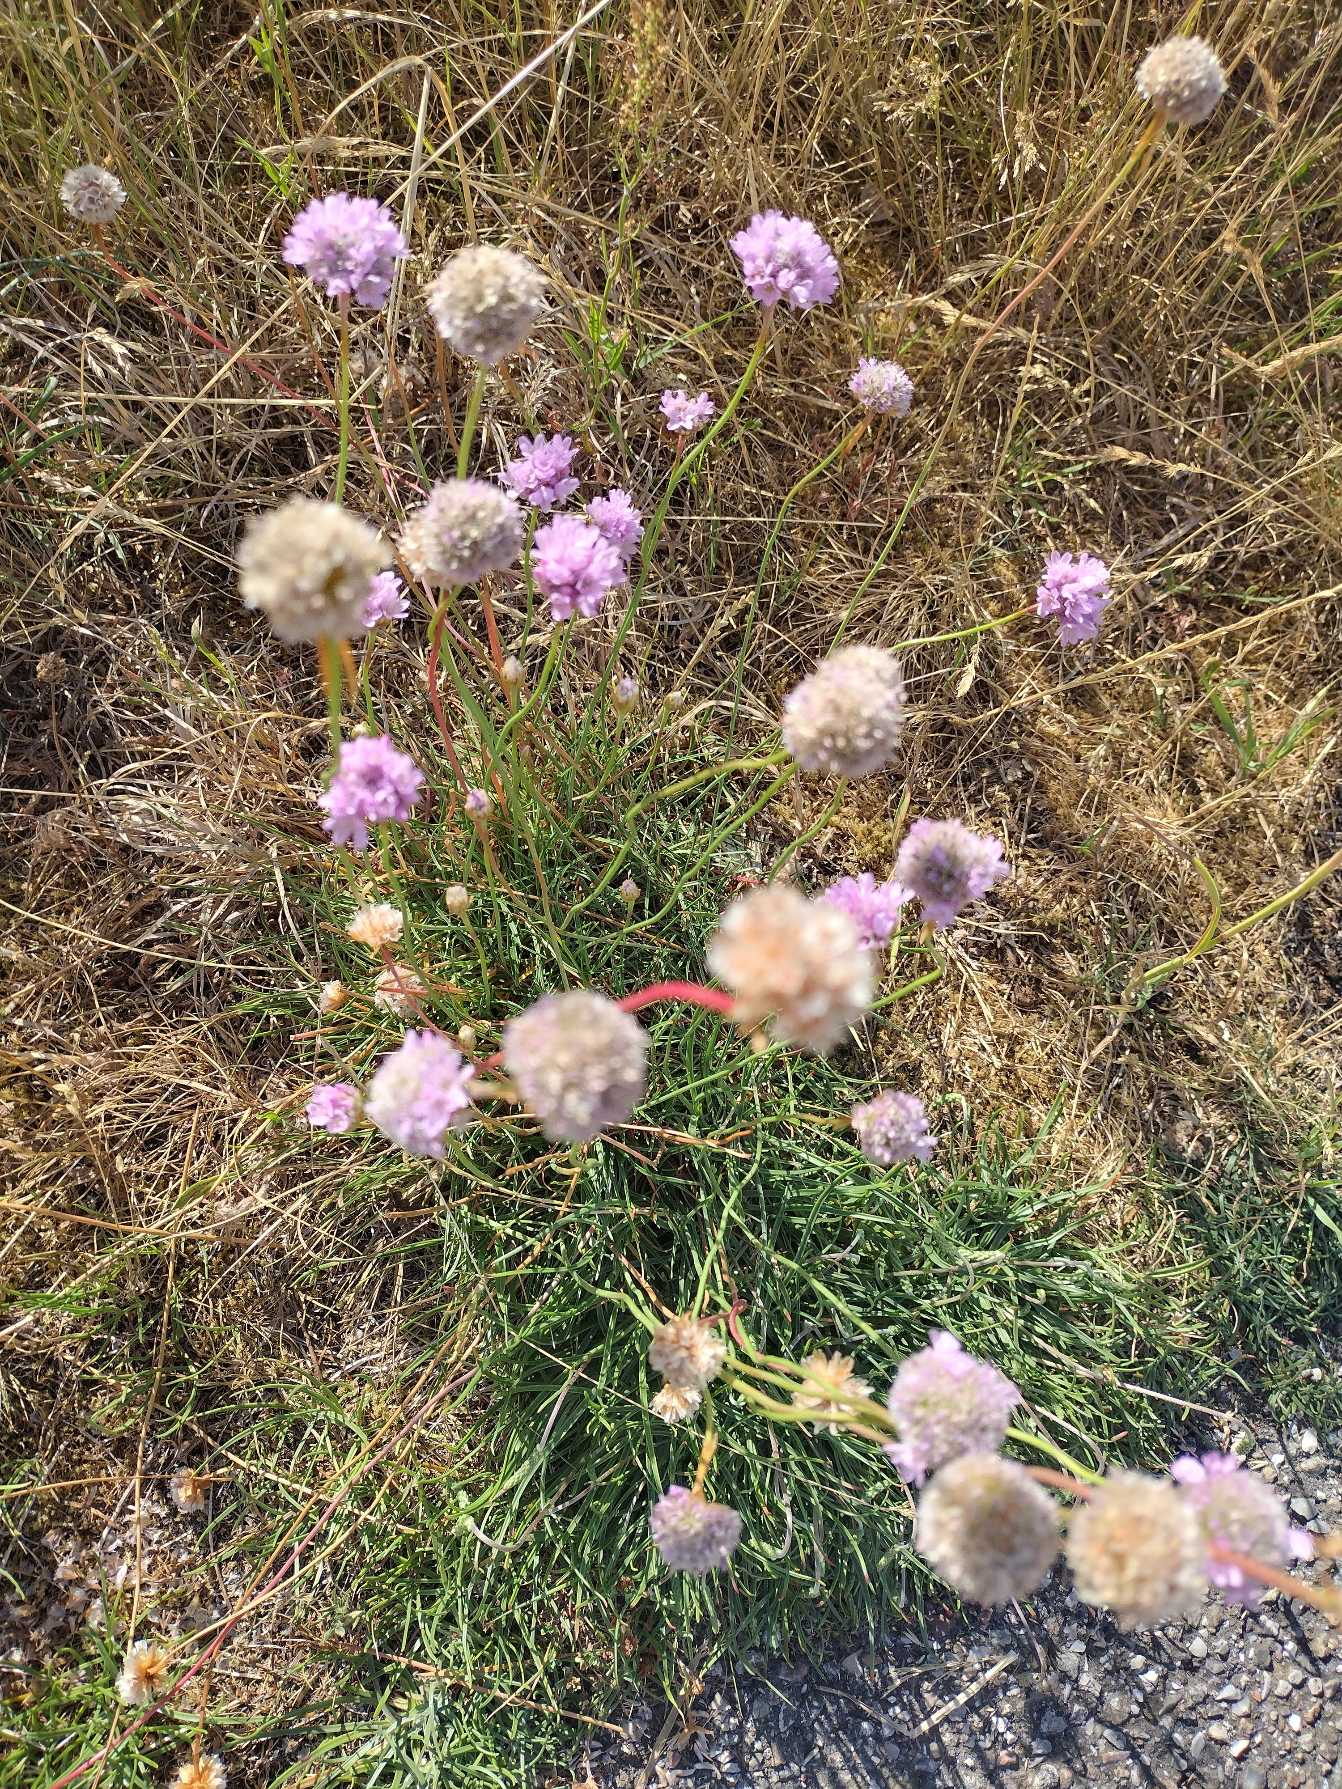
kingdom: Plantae
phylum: Tracheophyta
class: Magnoliopsida
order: Caryophyllales
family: Plumbaginaceae
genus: Armeria
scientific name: Armeria maritima
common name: Engelskgræs
